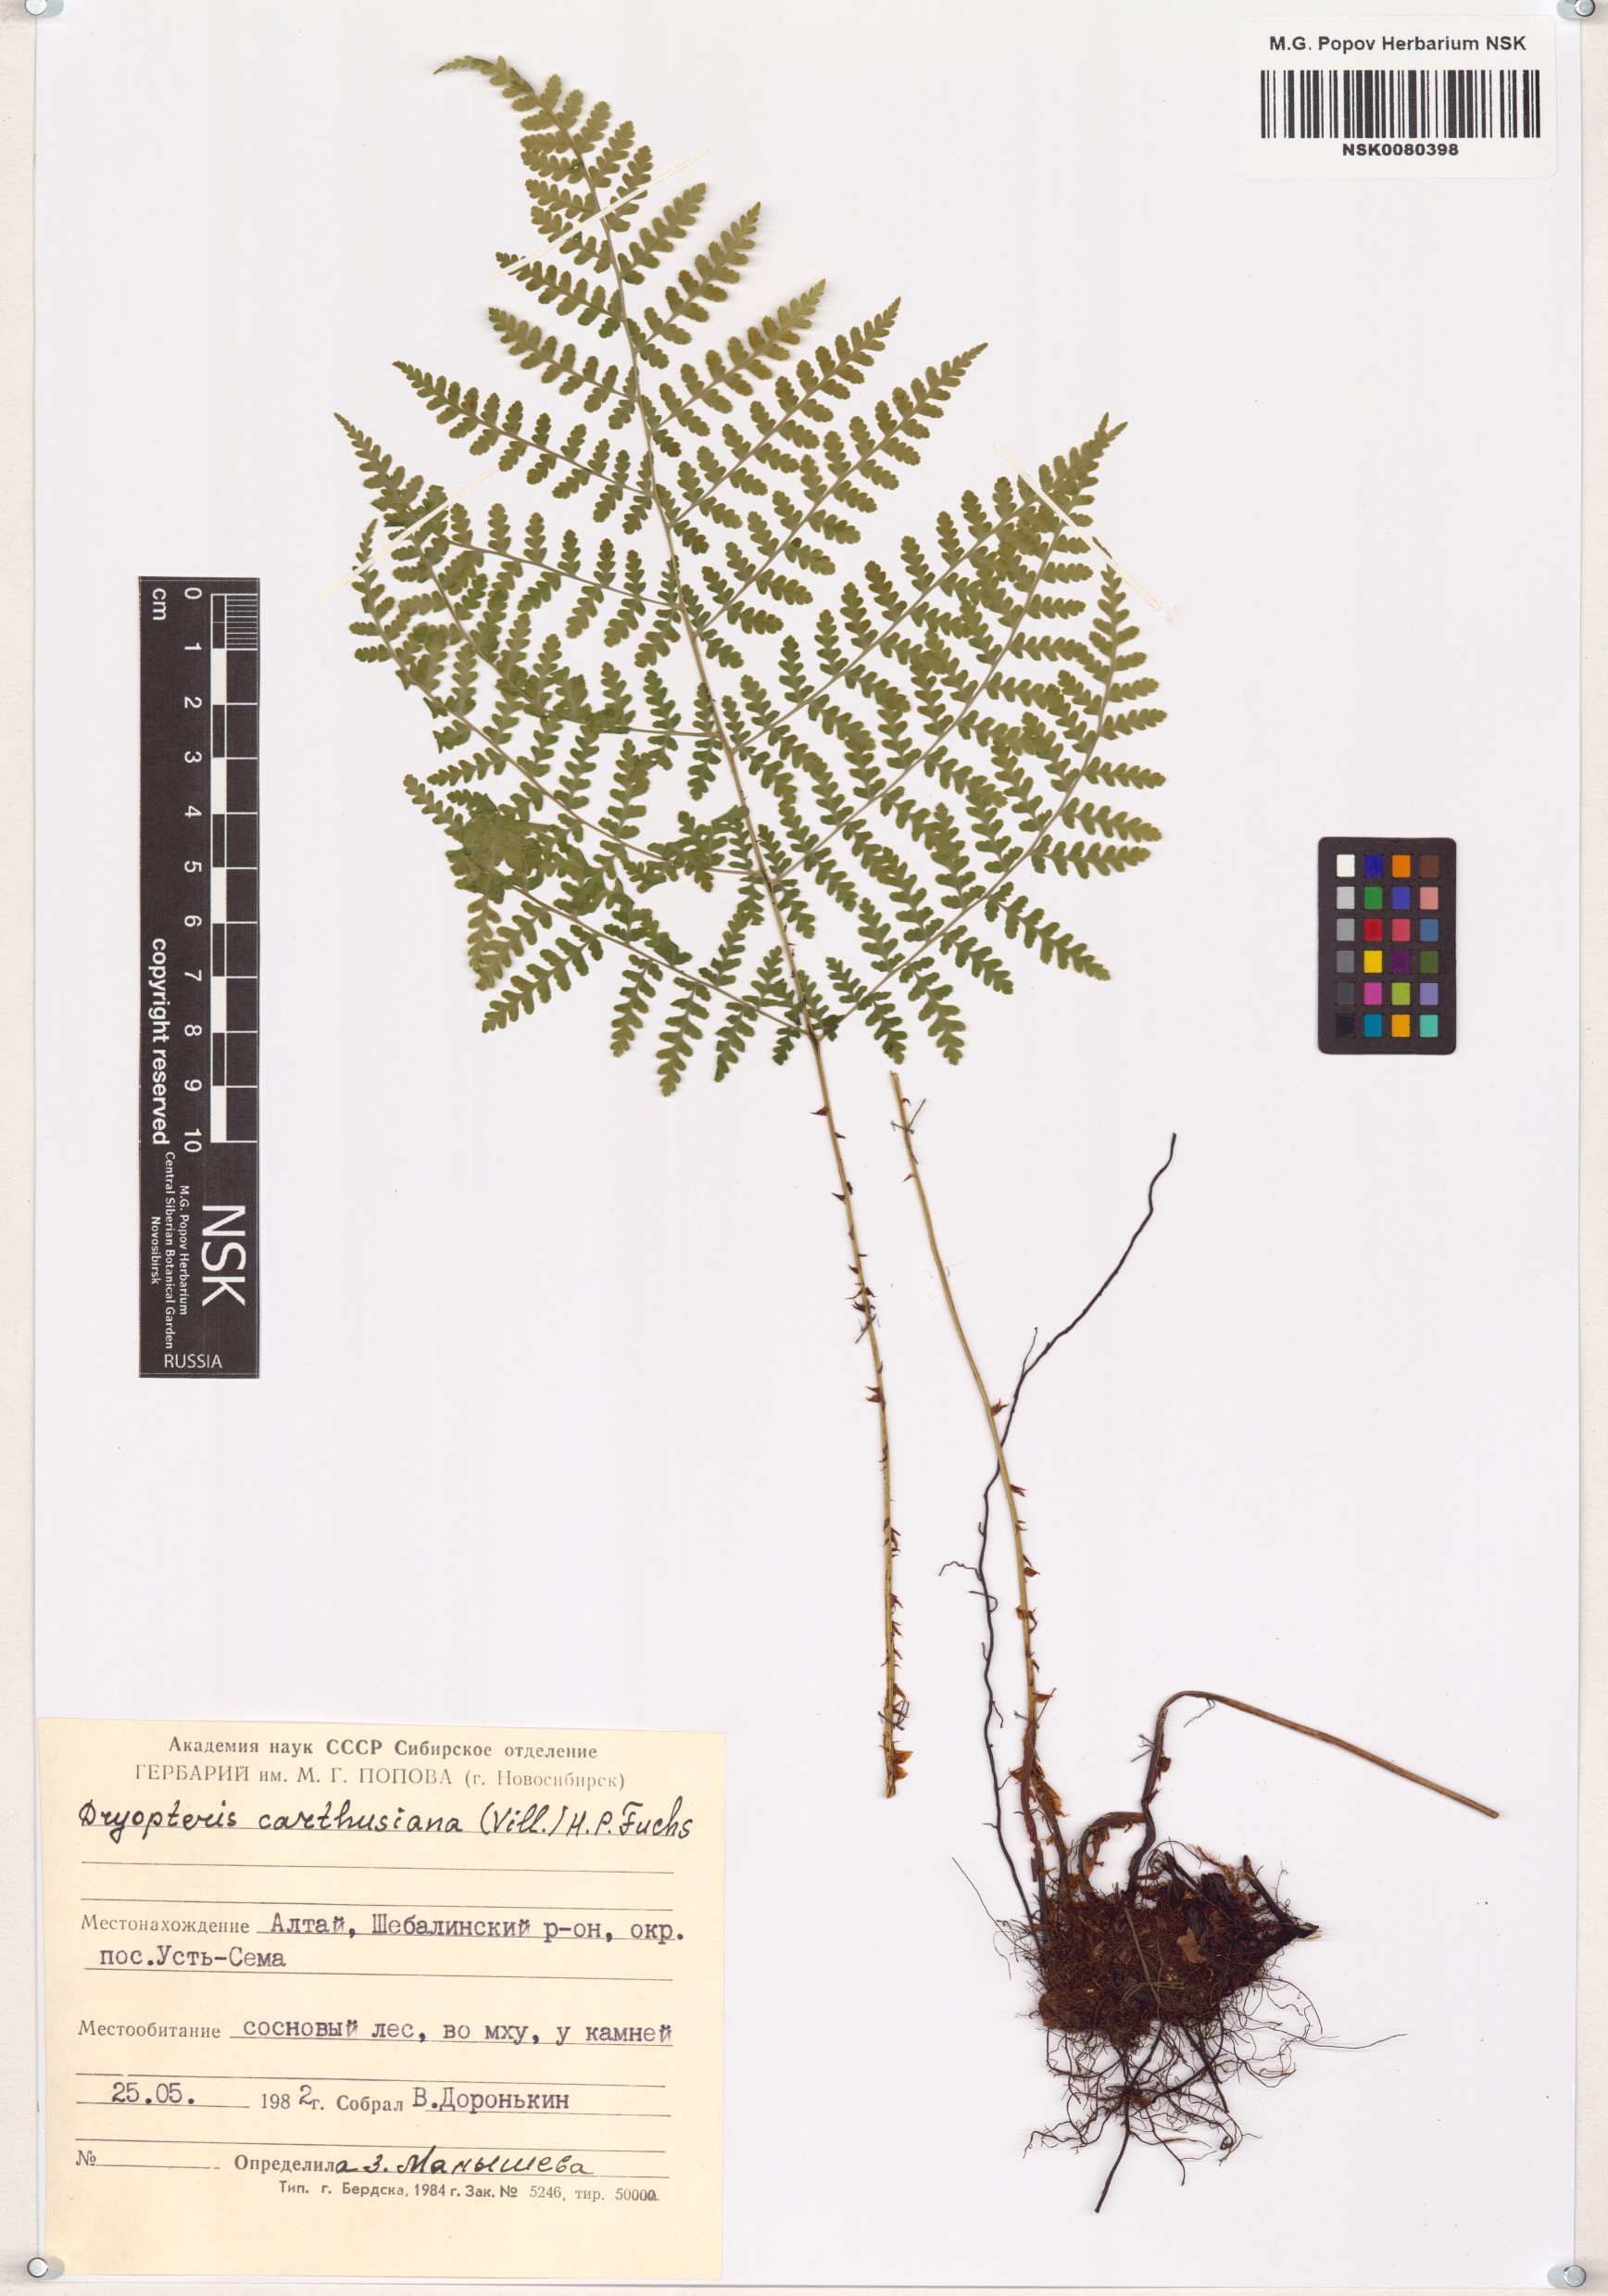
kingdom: Plantae
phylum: Tracheophyta
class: Polypodiopsida
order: Polypodiales
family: Dryopteridaceae
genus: Dryopteris
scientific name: Dryopteris carthusiana
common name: Narrow buckler-fern
